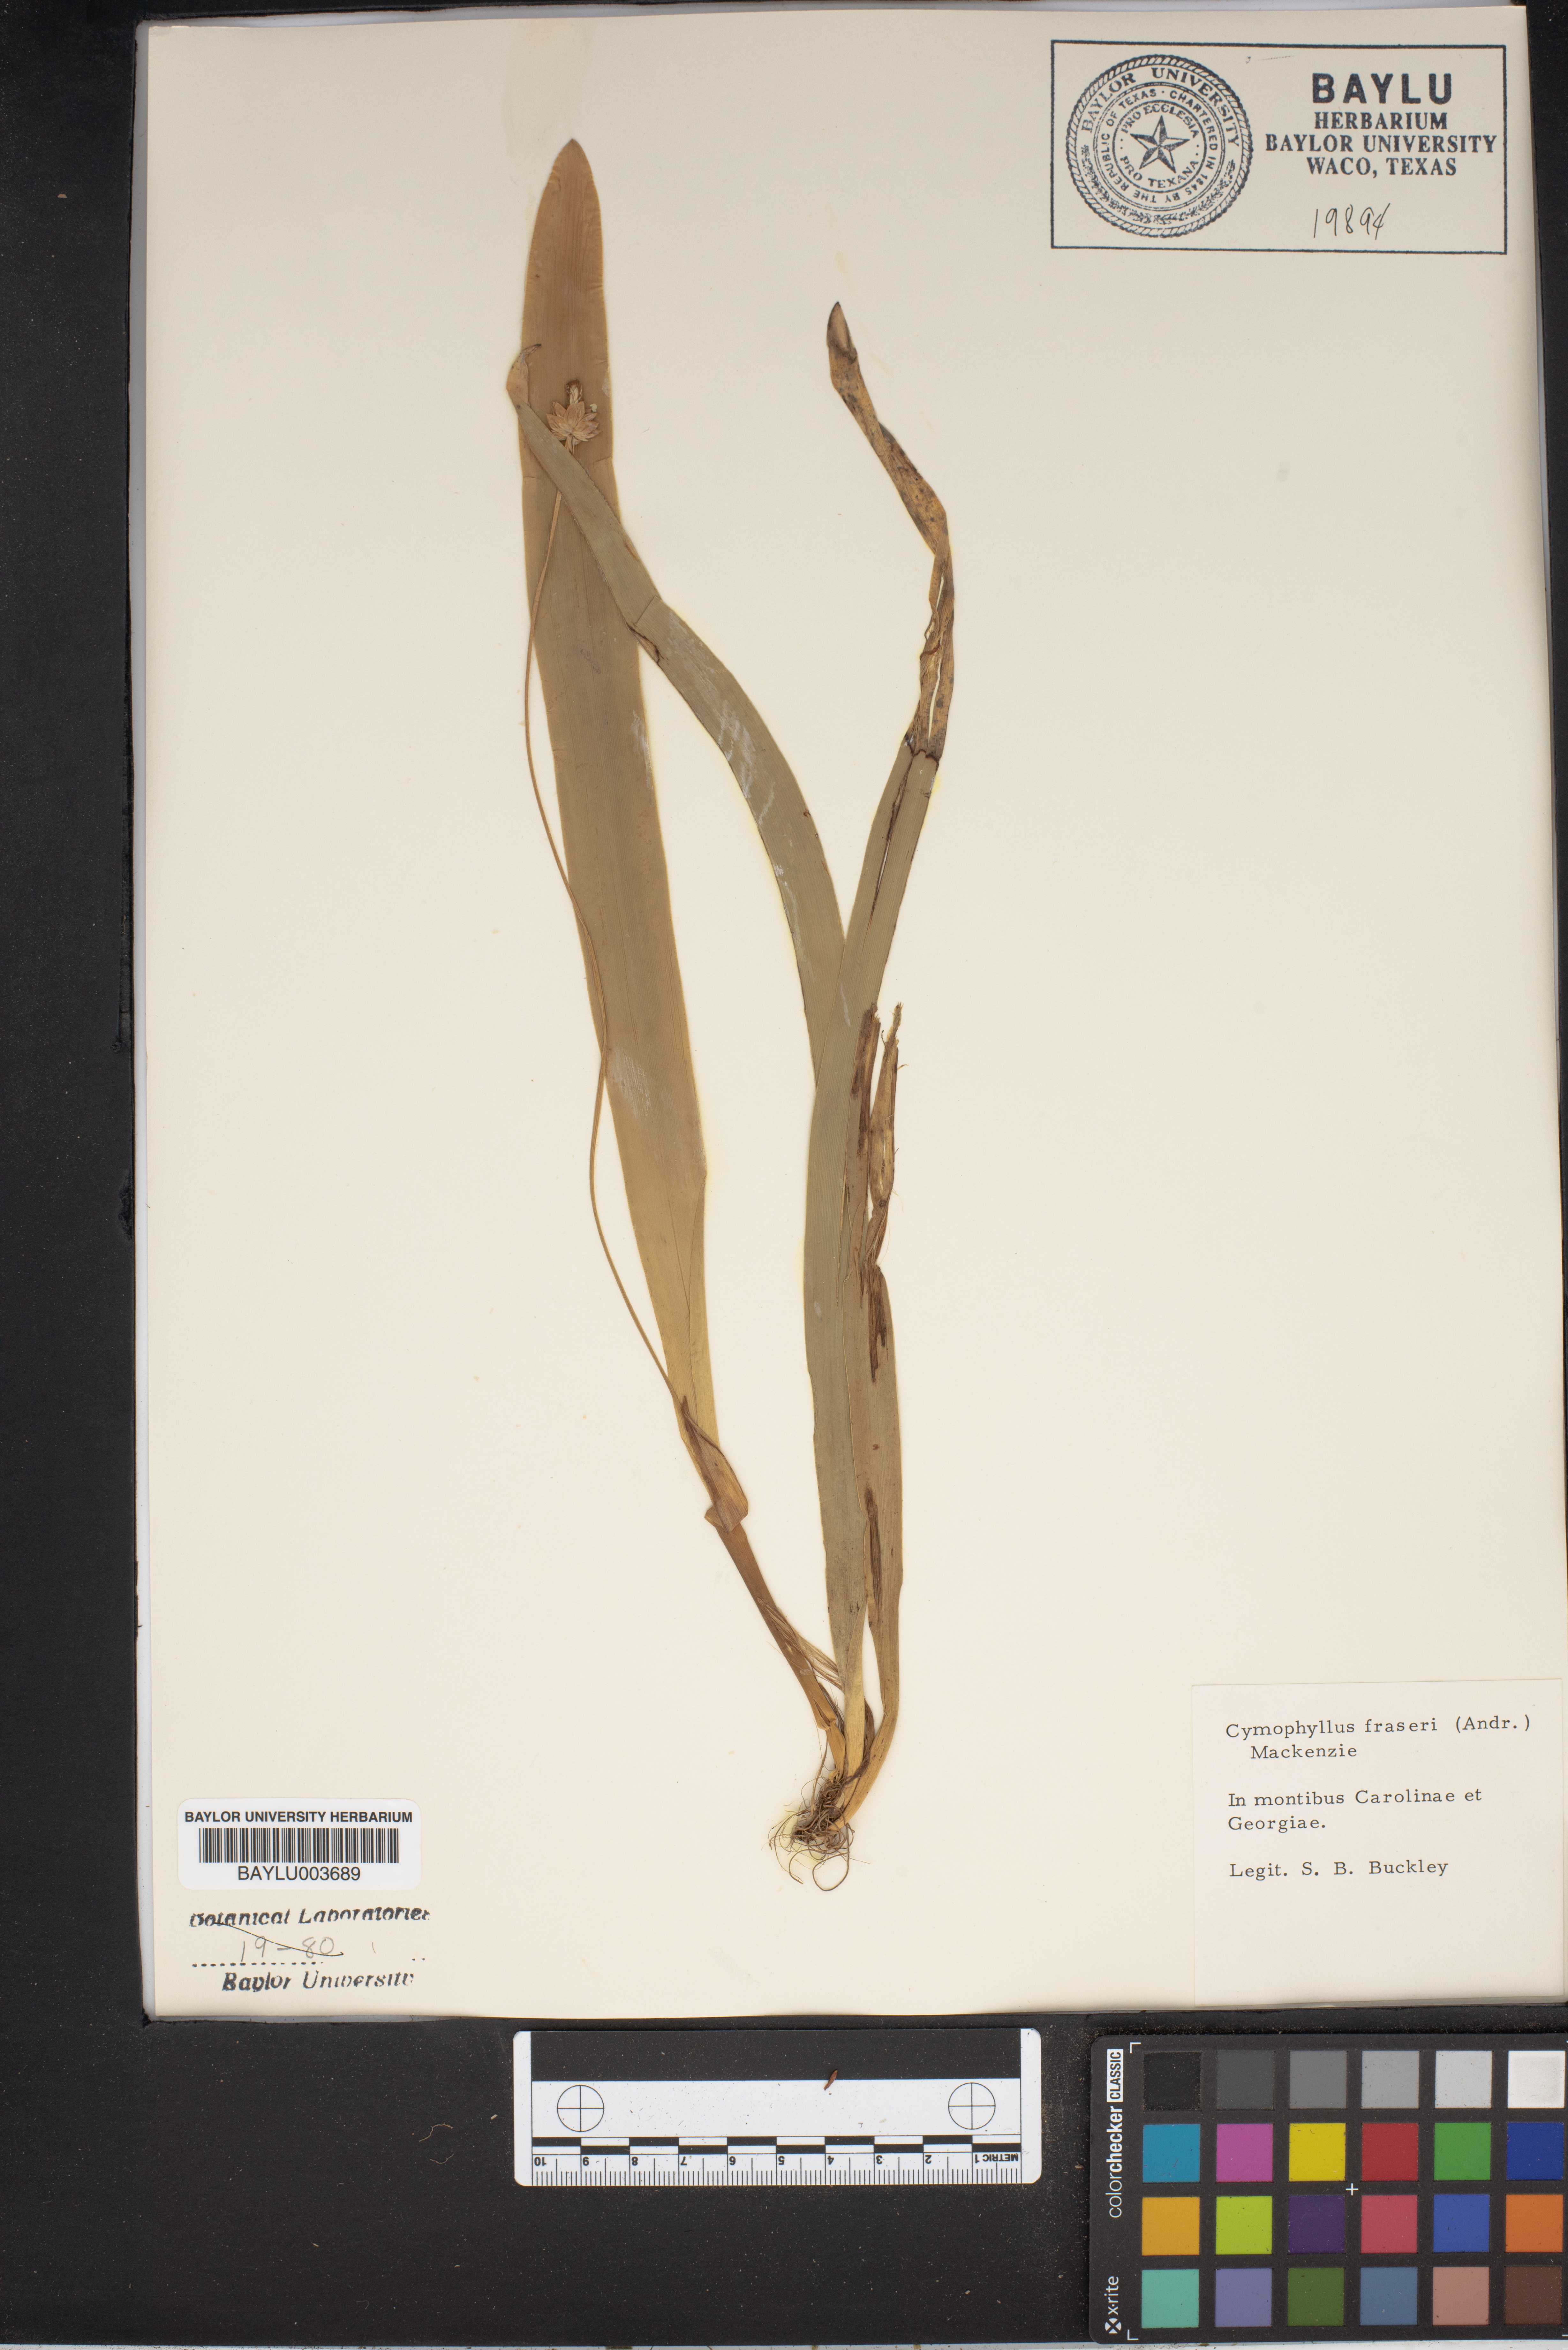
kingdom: Plantae
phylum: Tracheophyta
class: Liliopsida
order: Poales
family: Cyperaceae
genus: Carex
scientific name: Carex fraseriana
